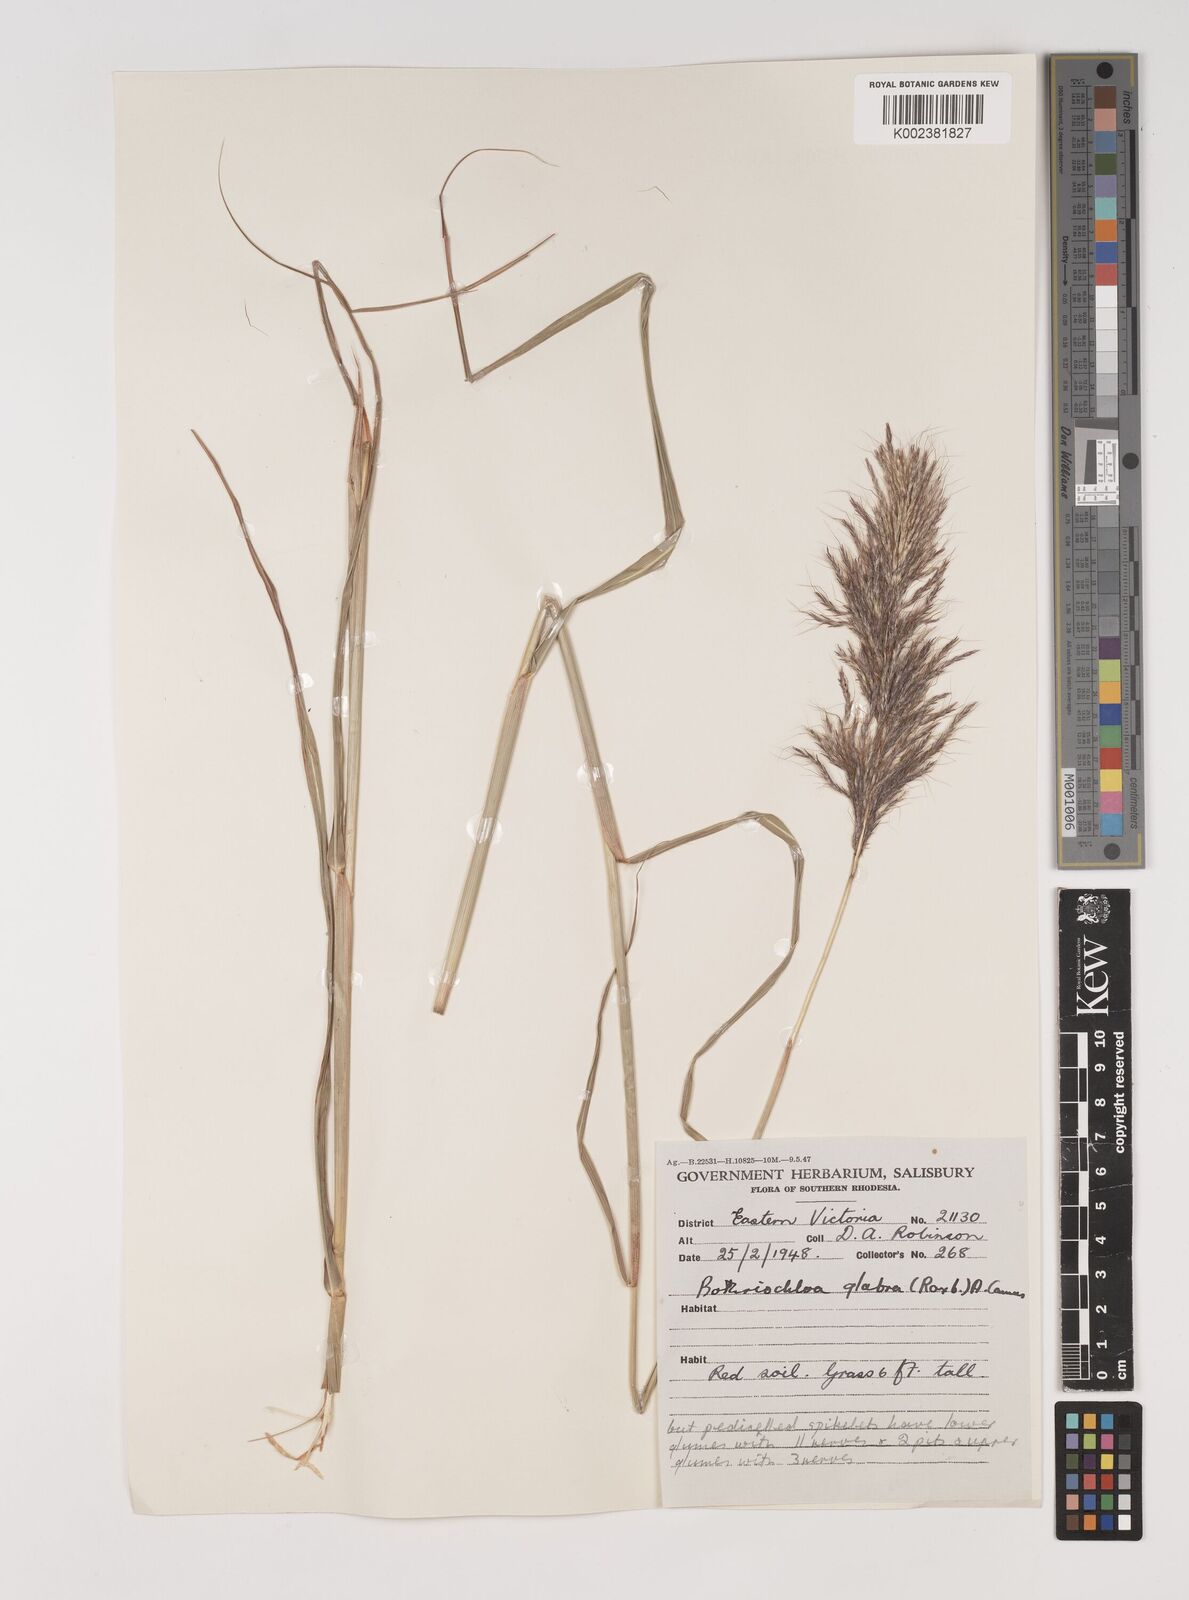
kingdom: Plantae
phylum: Tracheophyta
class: Liliopsida
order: Poales
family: Poaceae
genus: Bothriochloa
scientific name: Bothriochloa bladhii
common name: Caucasian bluestem
